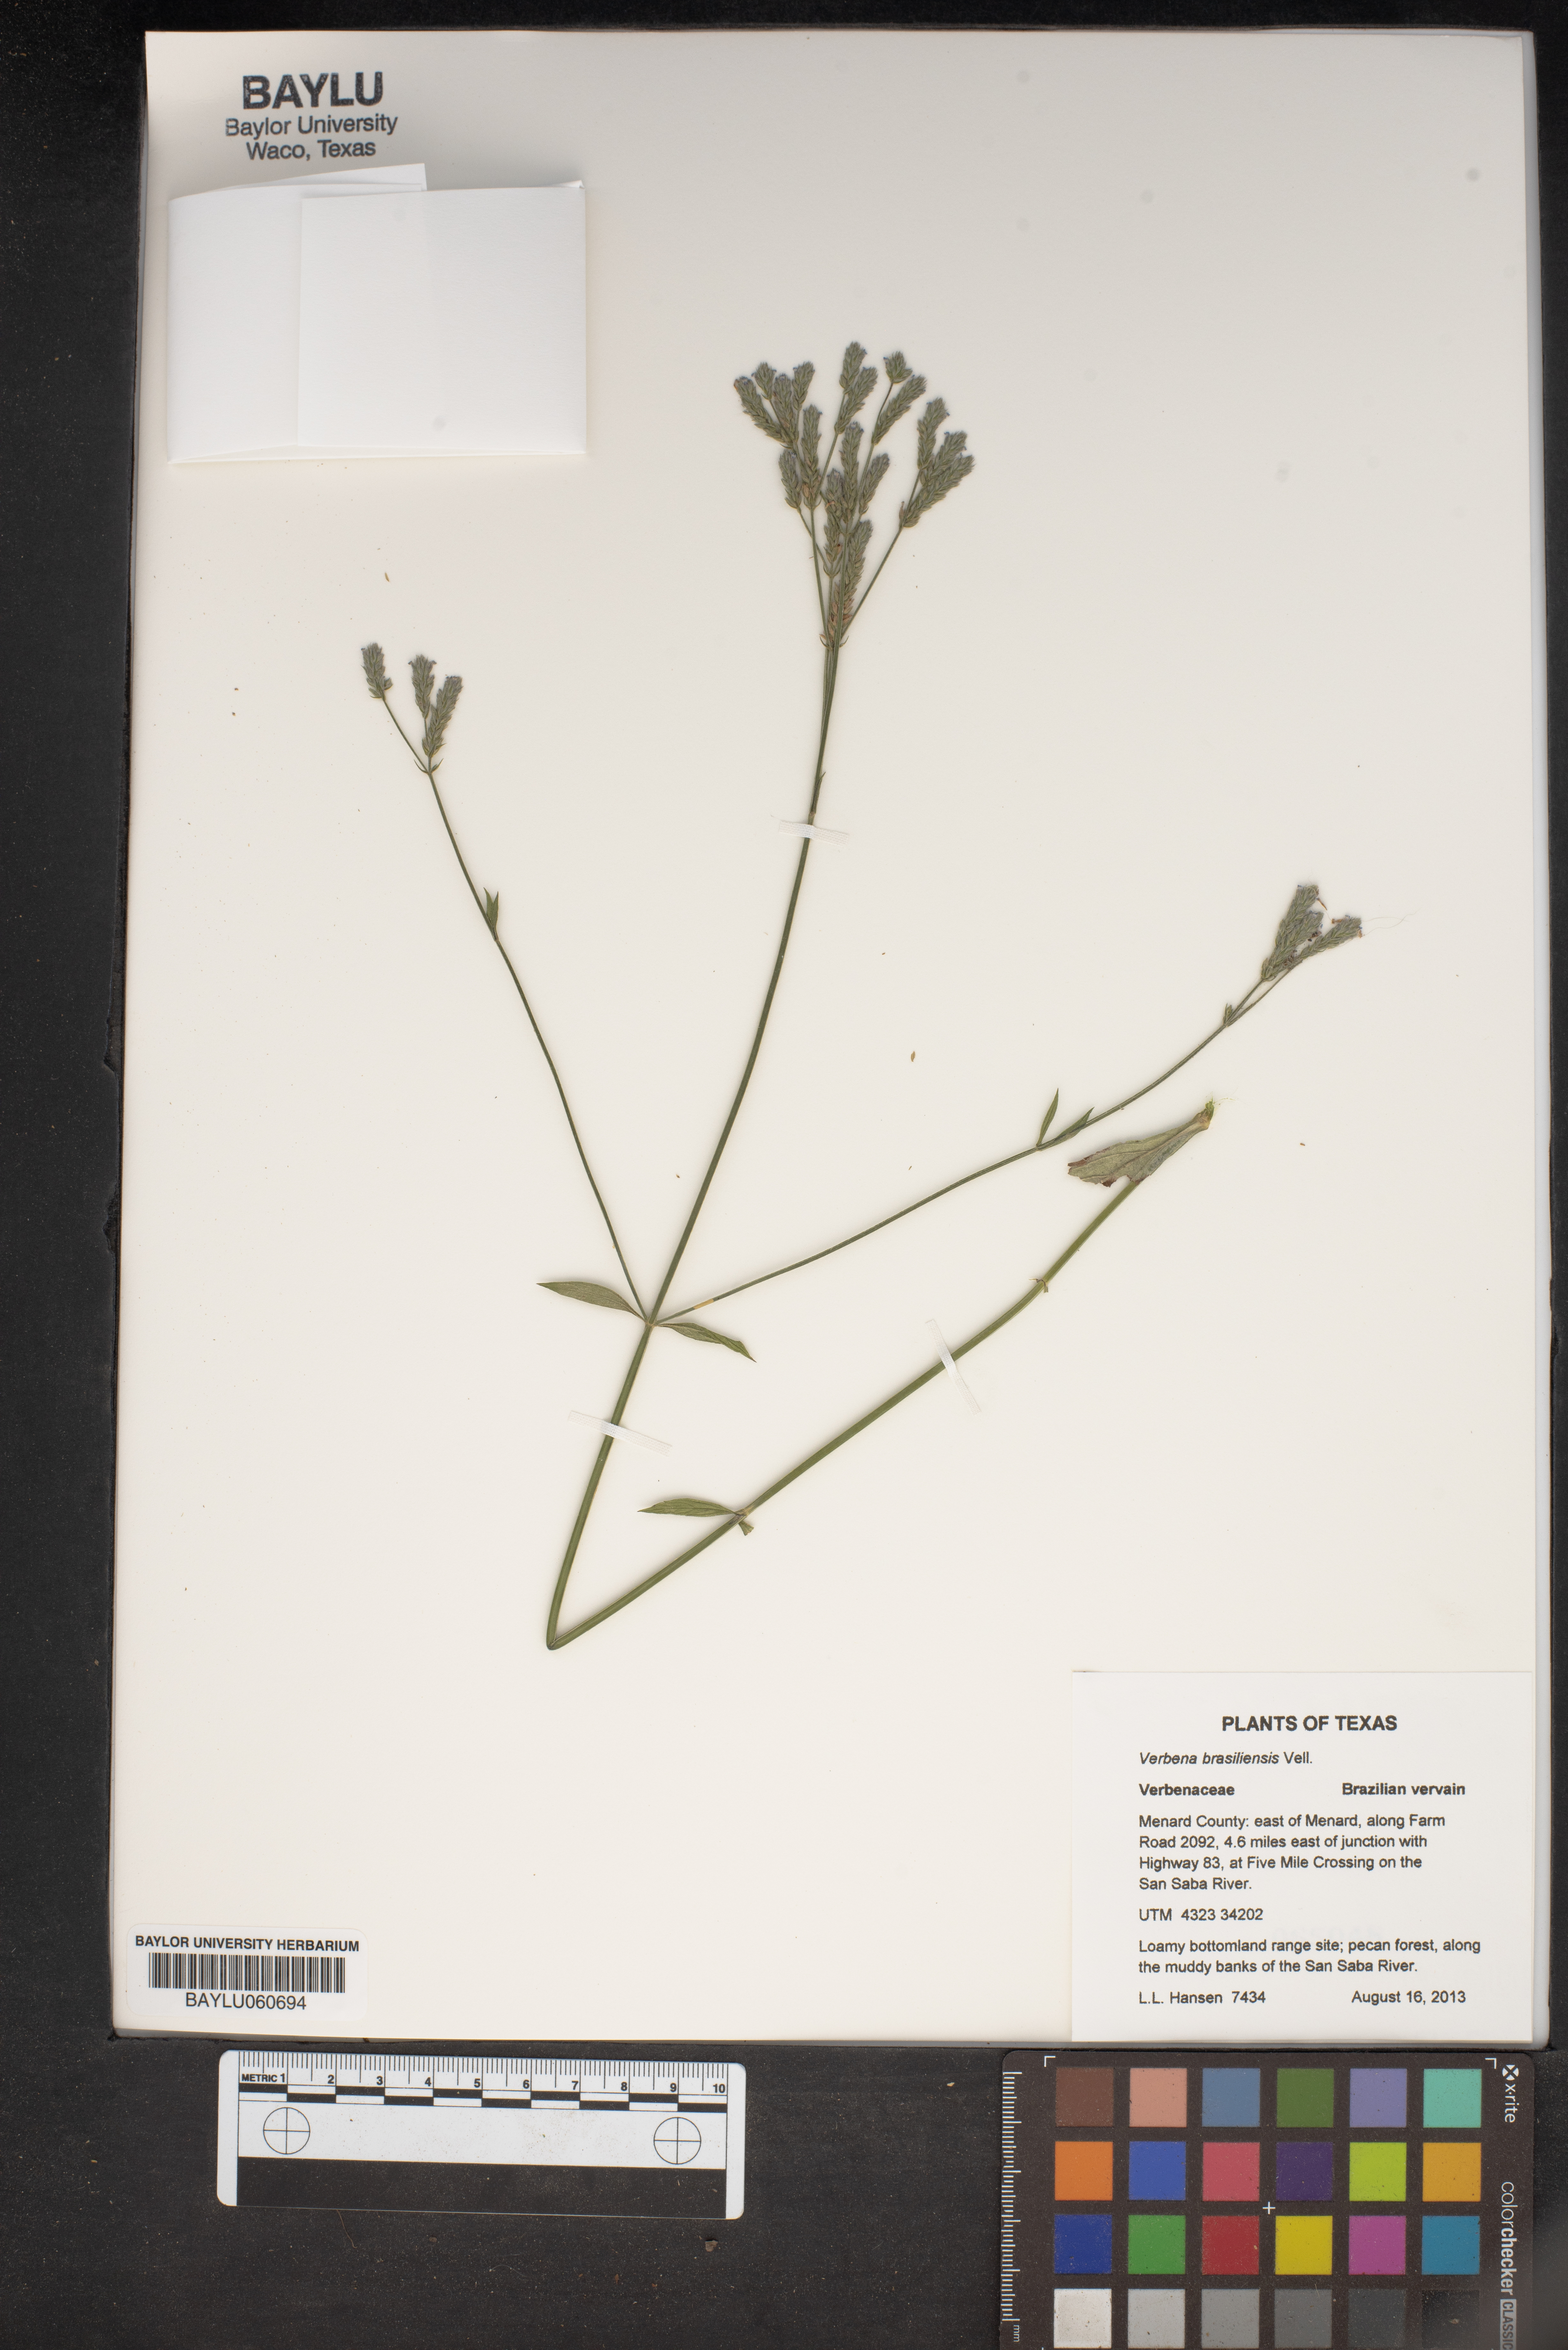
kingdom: Plantae
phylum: Tracheophyta
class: Magnoliopsida
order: Lamiales
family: Verbenaceae
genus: Verbena
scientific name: Verbena brasiliensis
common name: Brazilian vervain
